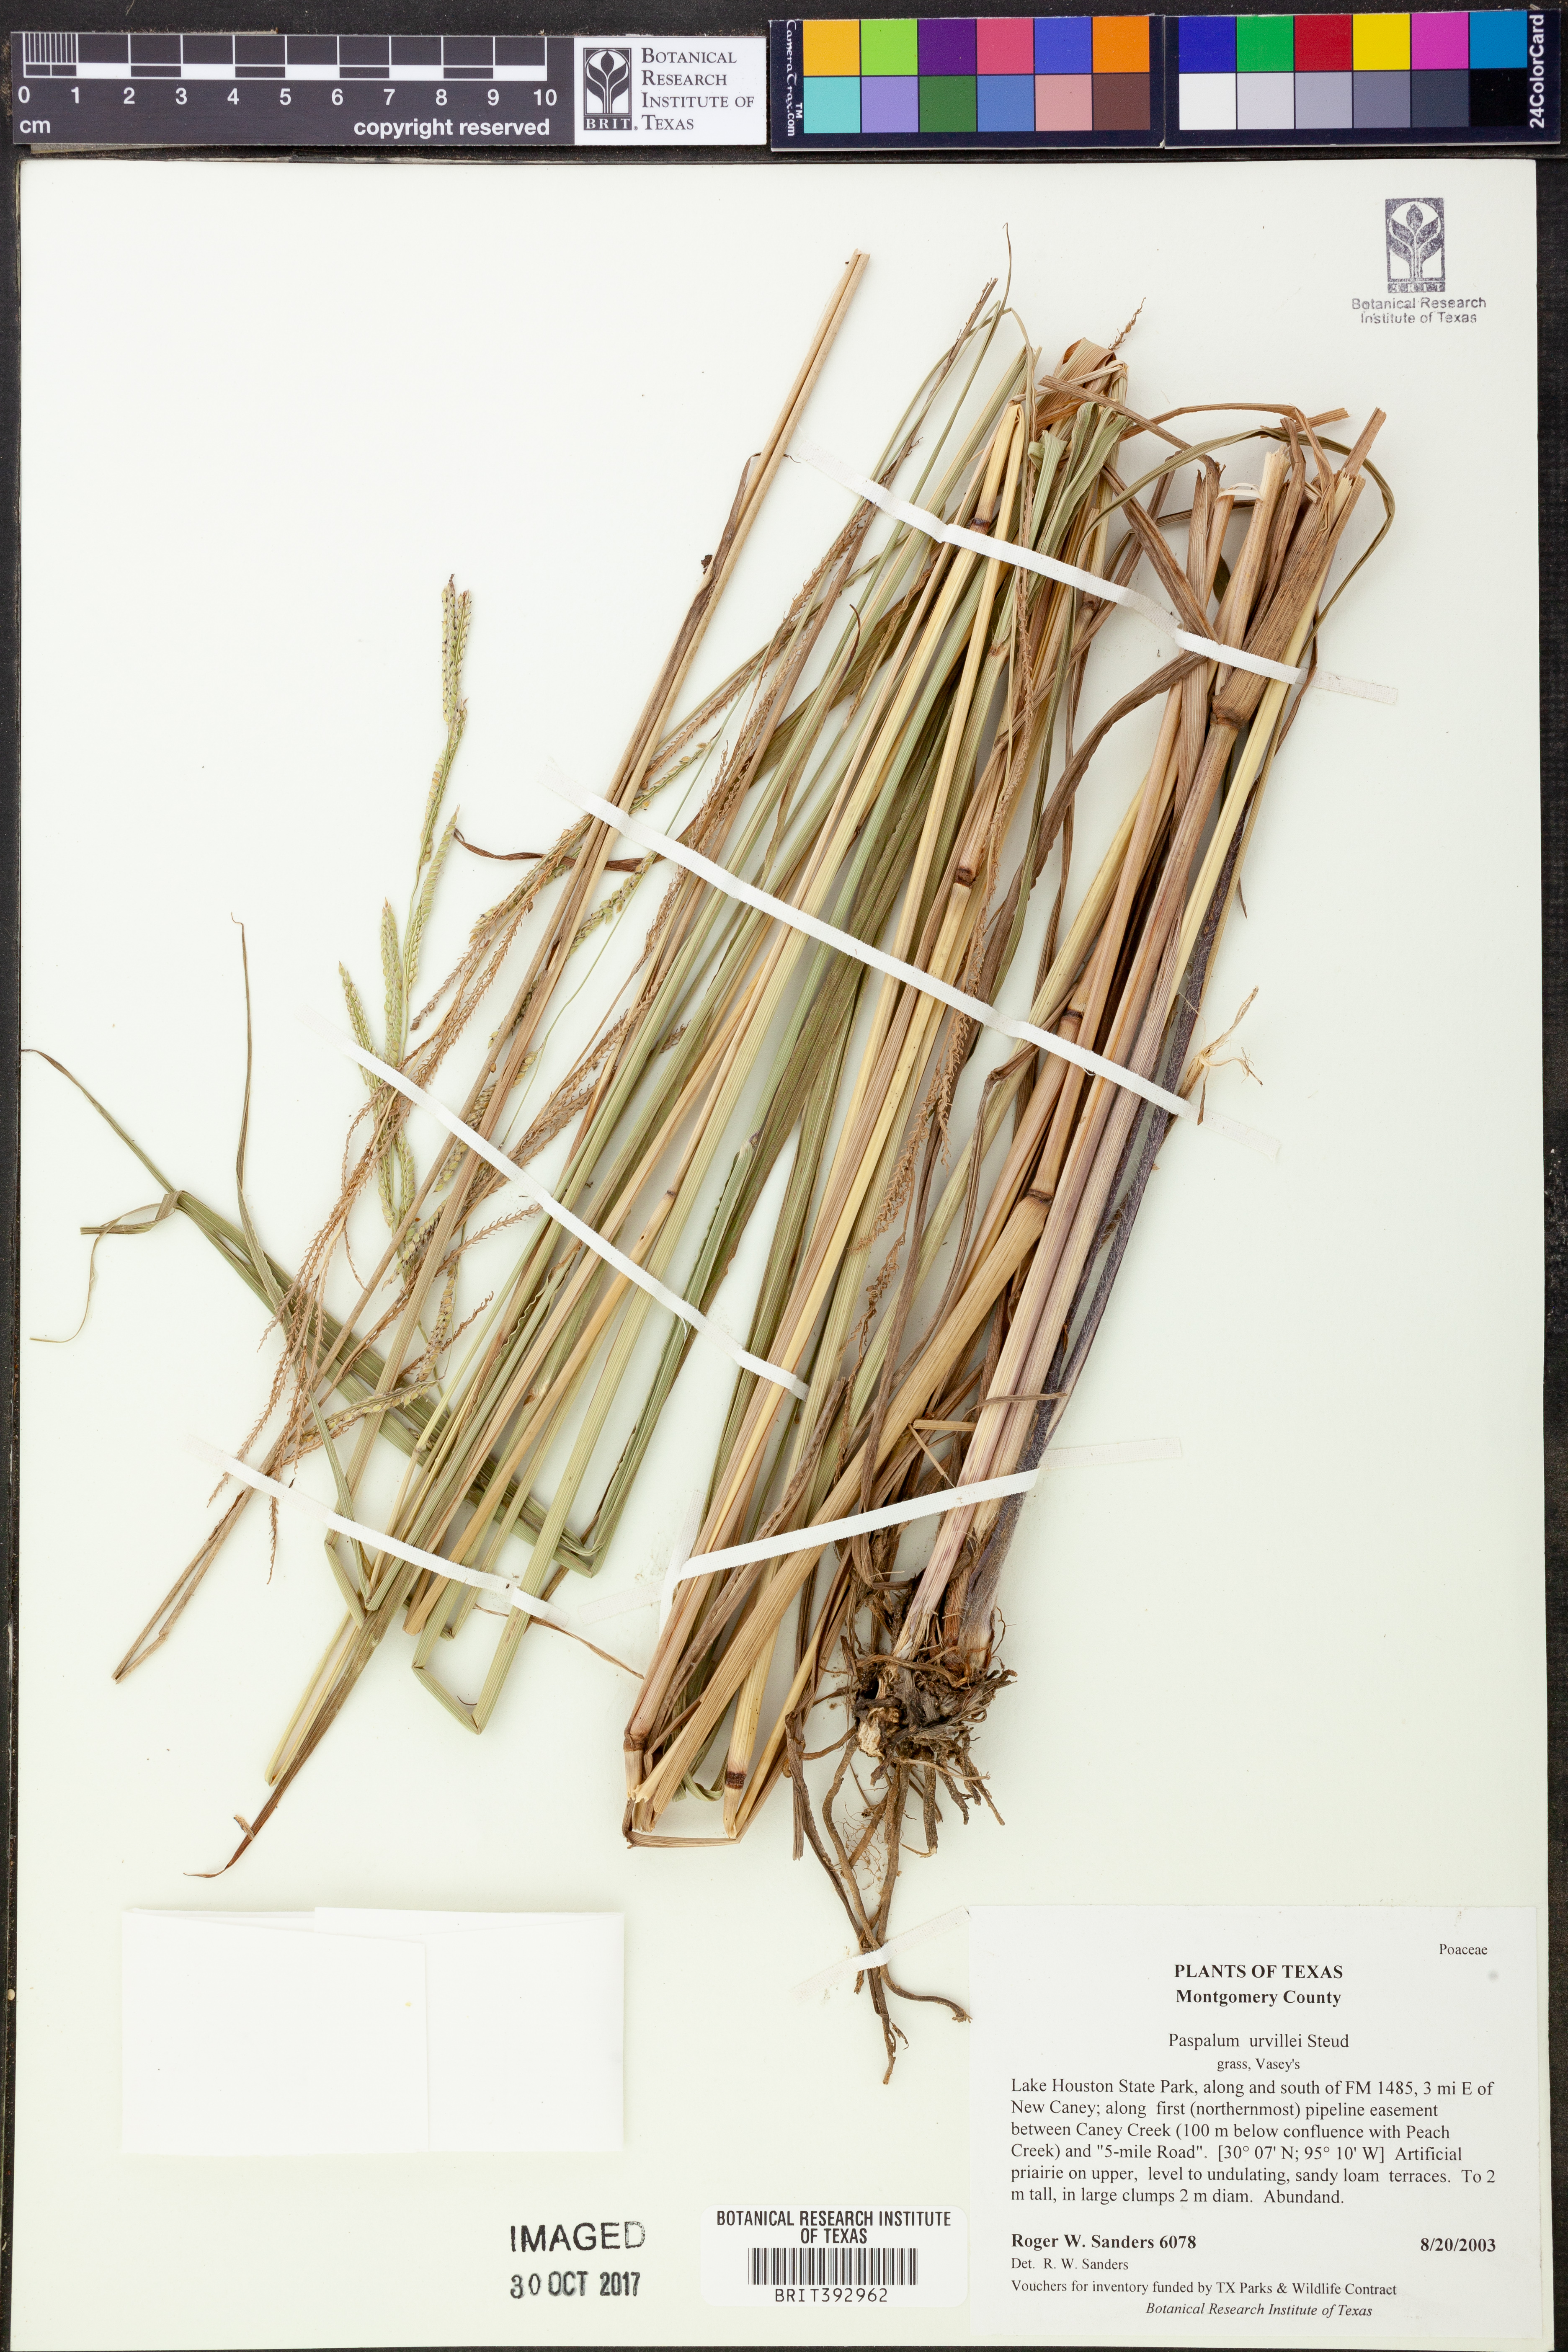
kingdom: Plantae
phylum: Tracheophyta
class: Liliopsida
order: Poales
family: Poaceae
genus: Paspalum
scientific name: Paspalum urvillei
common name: Vasey's grass
